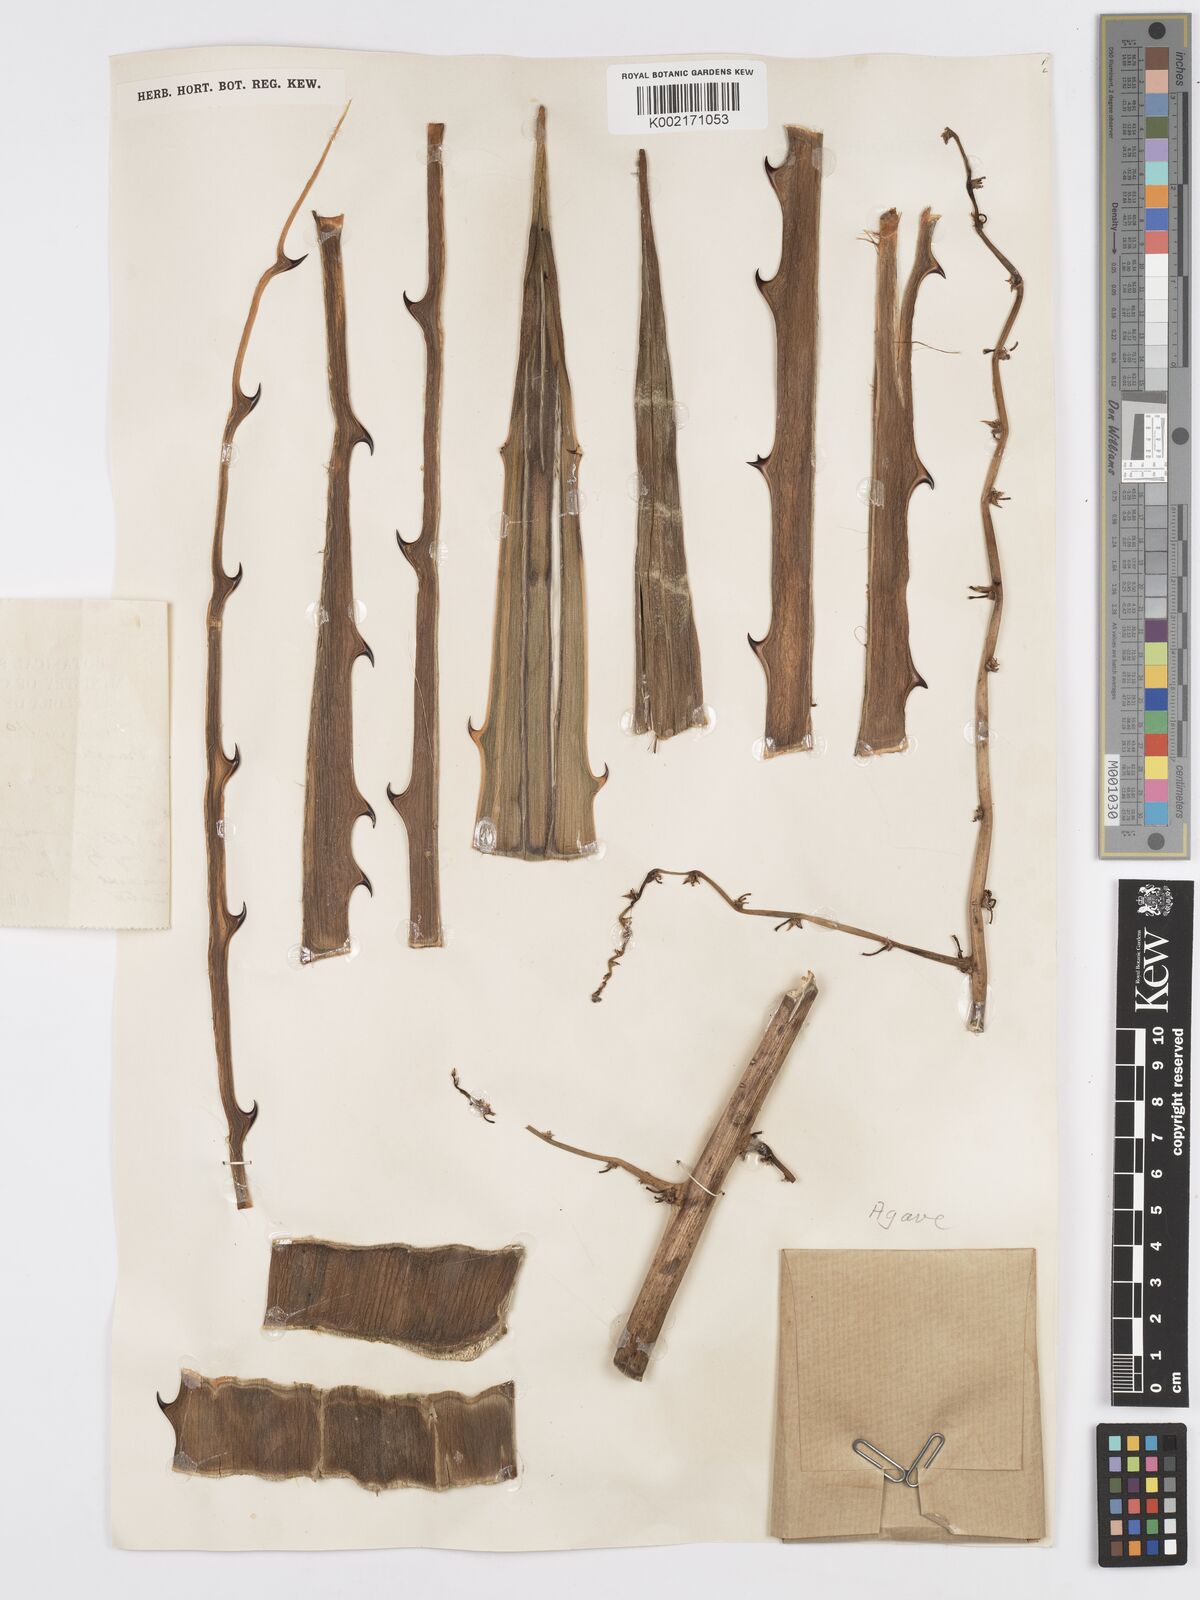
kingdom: Plantae
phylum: Tracheophyta
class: Liliopsida
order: Asparagales
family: Asparagaceae
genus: Agave
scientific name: Agave
